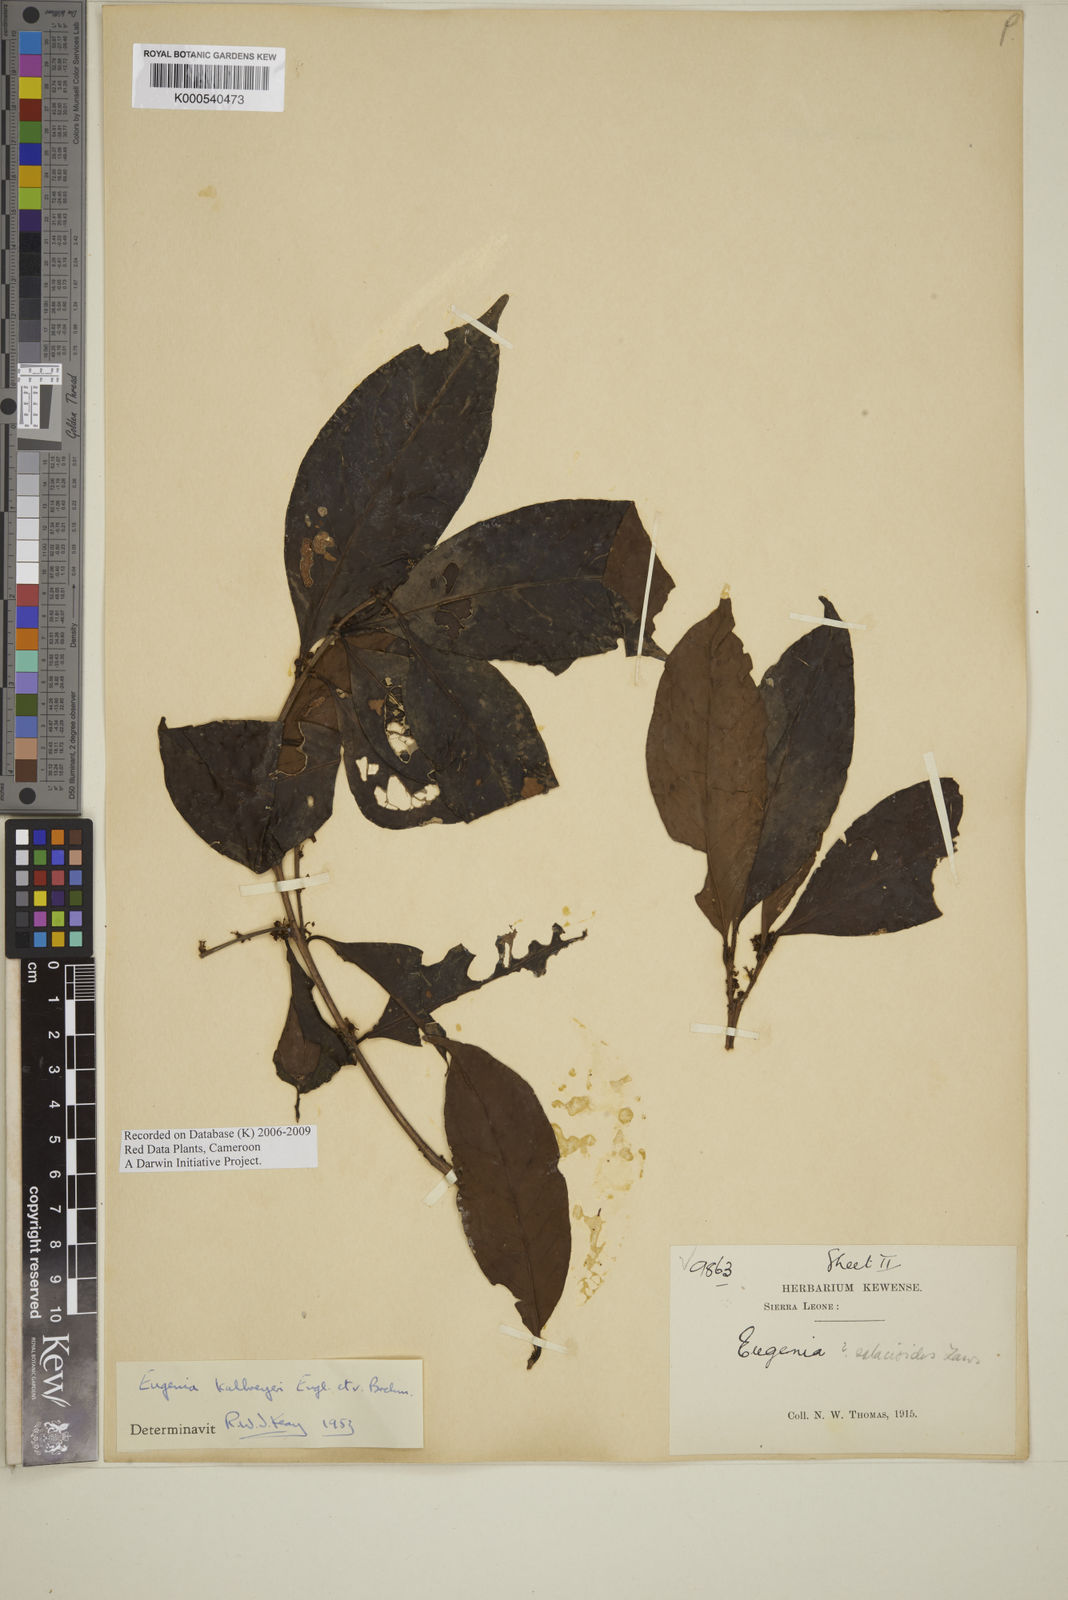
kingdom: Plantae
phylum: Tracheophyta
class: Magnoliopsida
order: Myrtales
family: Myrtaceae
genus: Eugenia
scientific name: Eugenia kalbreyeri
